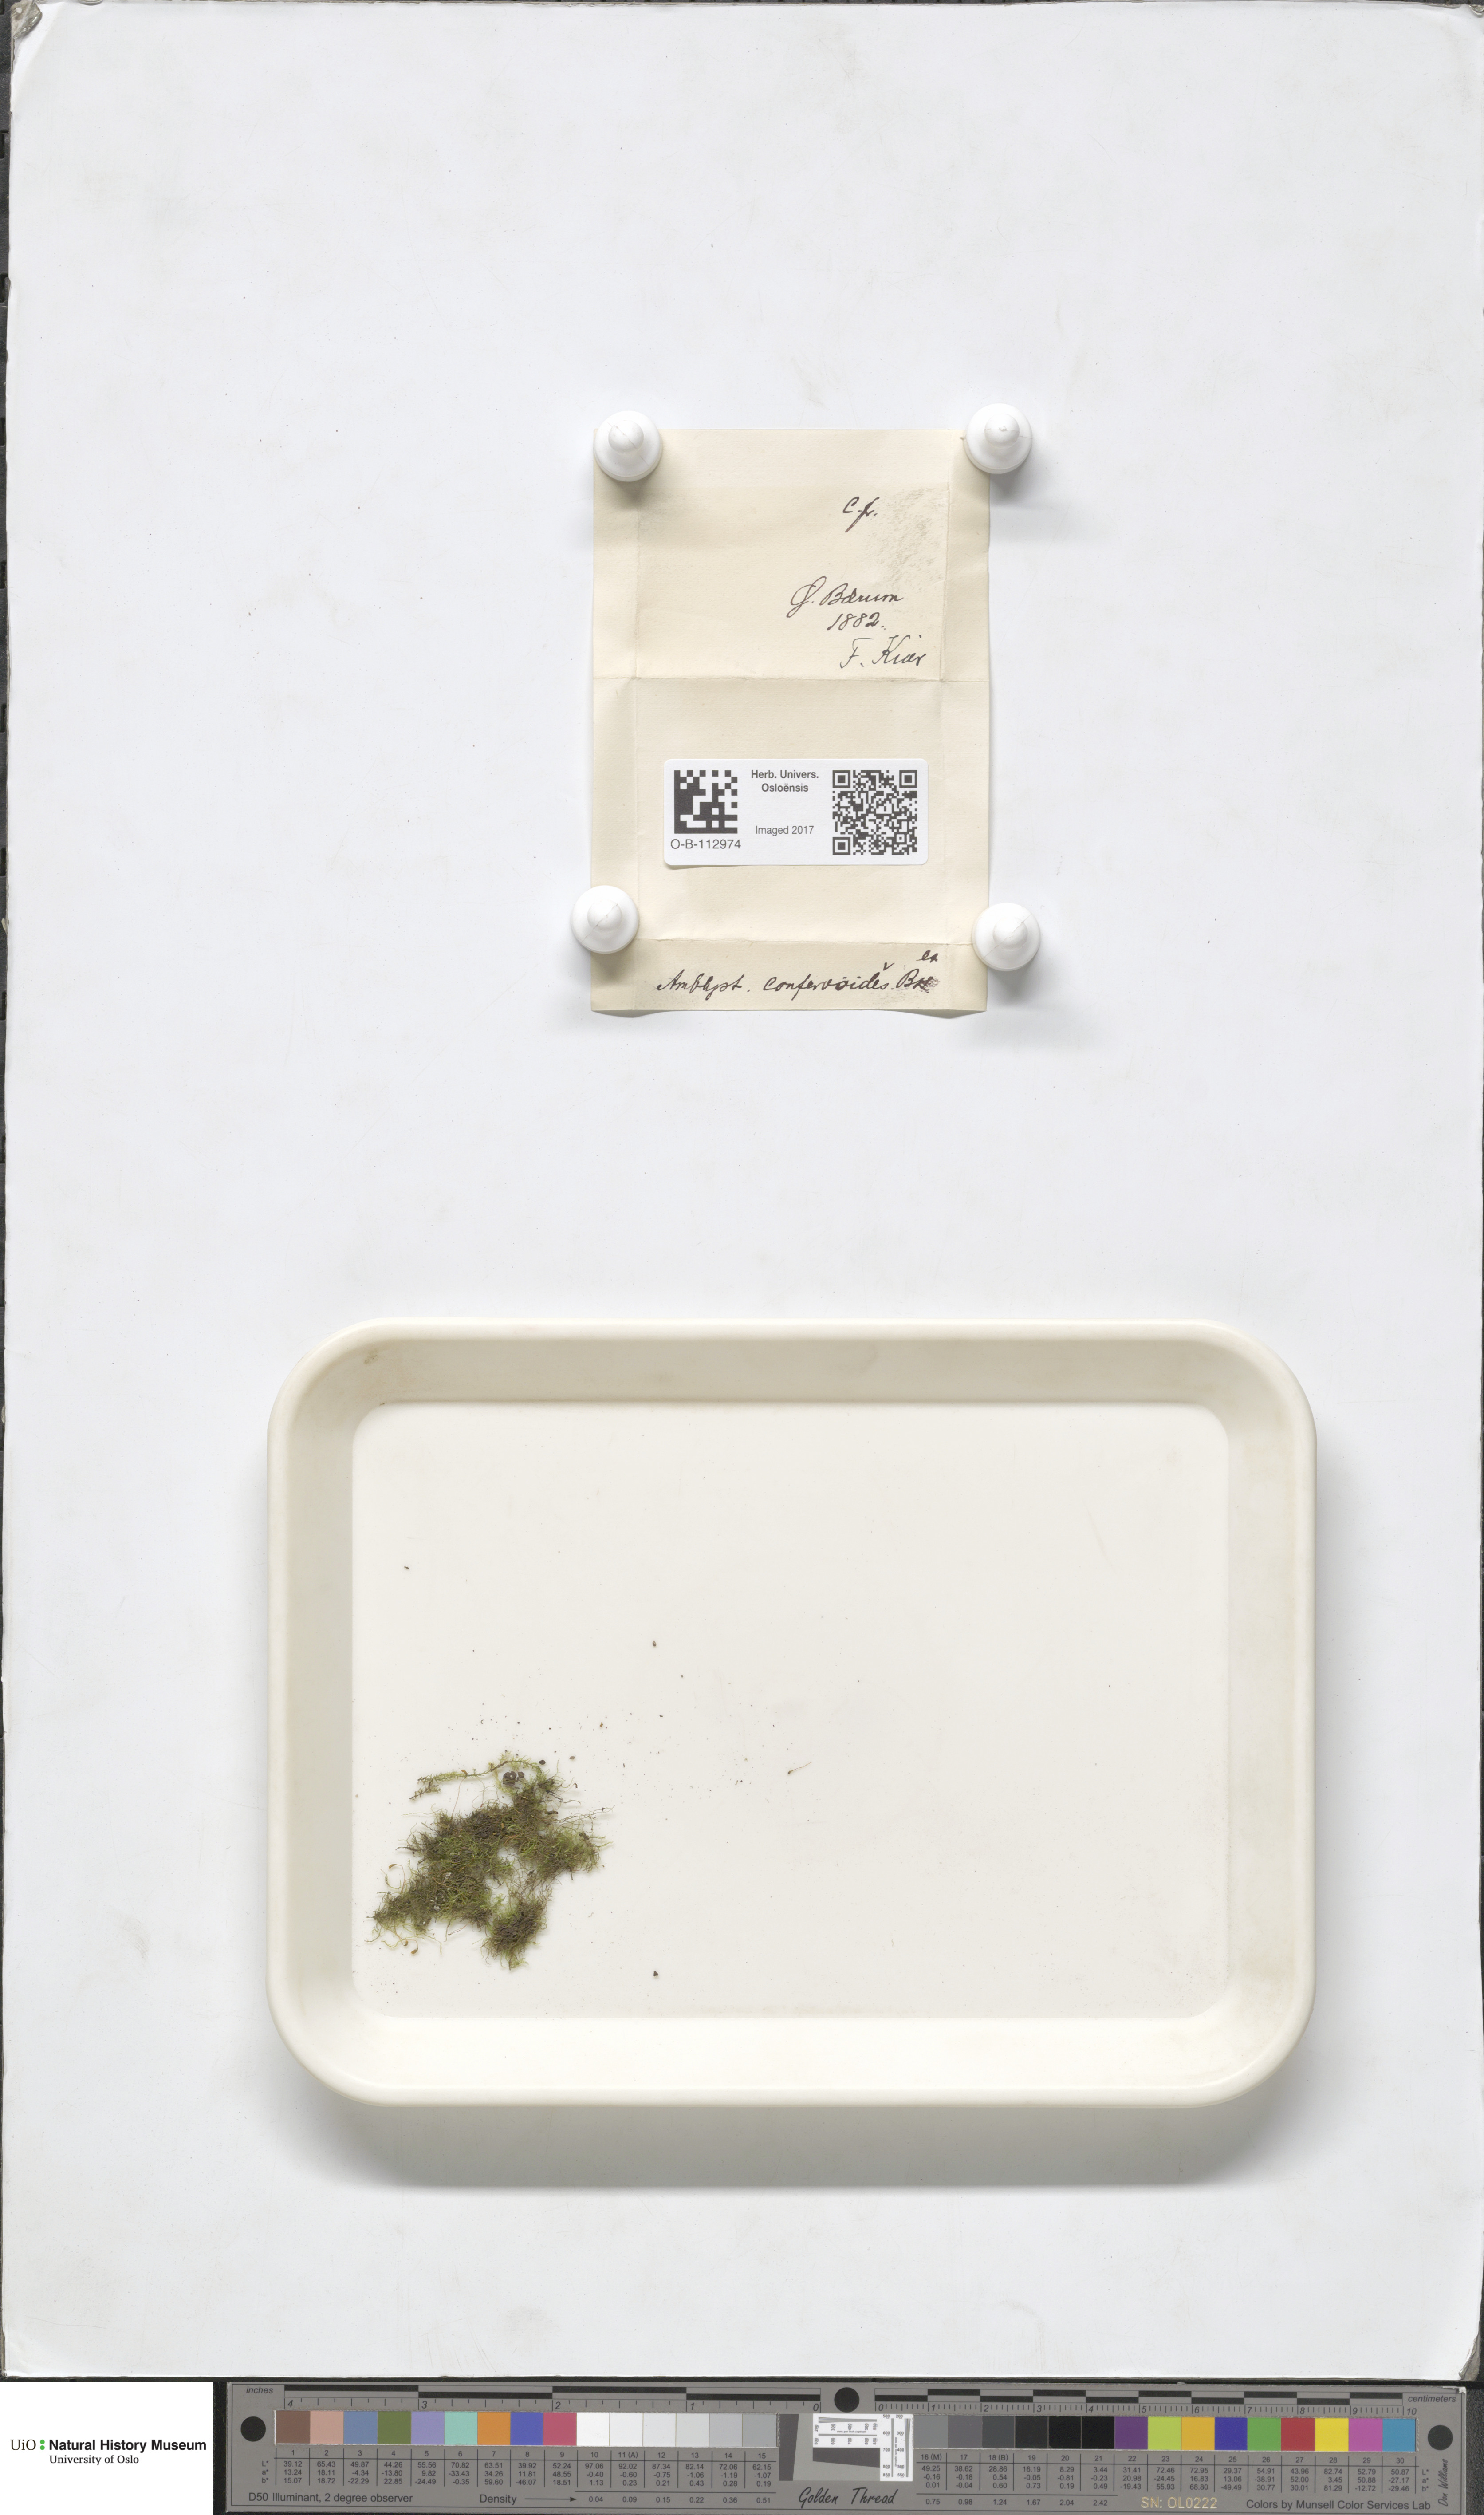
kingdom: Plantae
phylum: Bryophyta
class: Bryopsida
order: Hypnales
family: Amblystegiaceae
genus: Serpoleskea
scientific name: Serpoleskea confervoides
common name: Alga-like matted-moss
